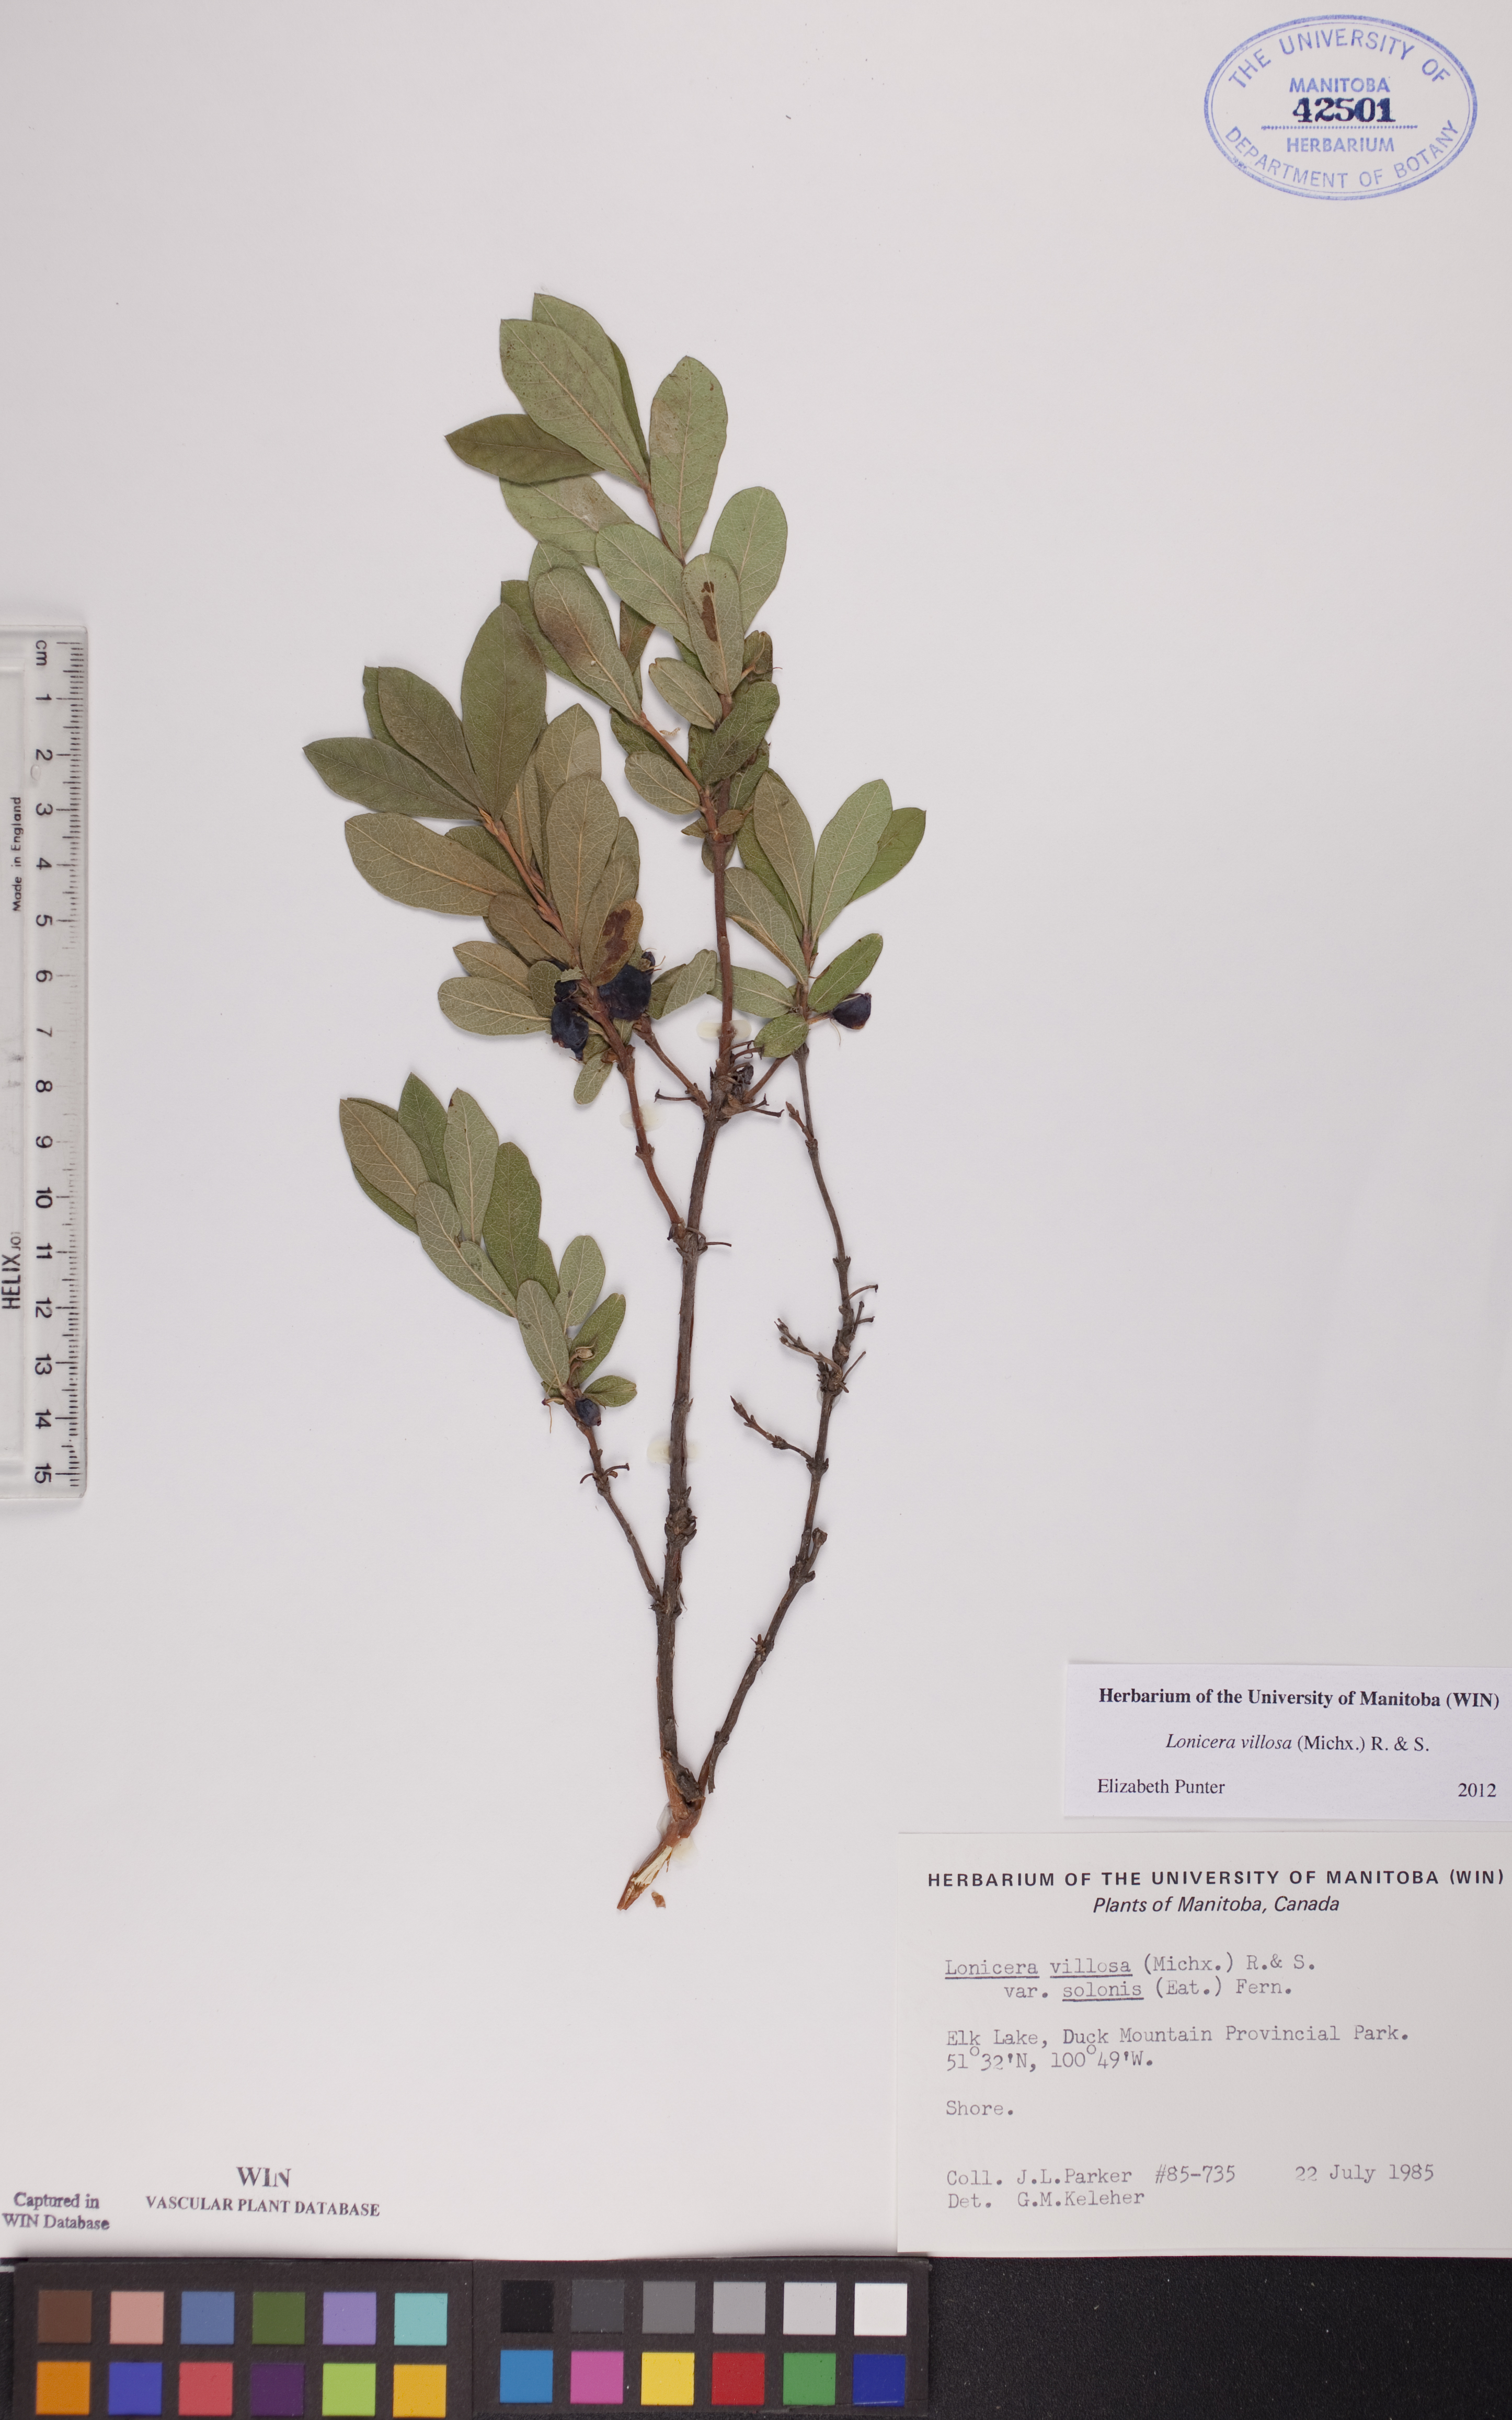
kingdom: Plantae
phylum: Tracheophyta
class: Magnoliopsida
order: Dipsacales
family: Caprifoliaceae
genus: Lonicera
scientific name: Lonicera villosa
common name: Mountain fly-honeysuckle
